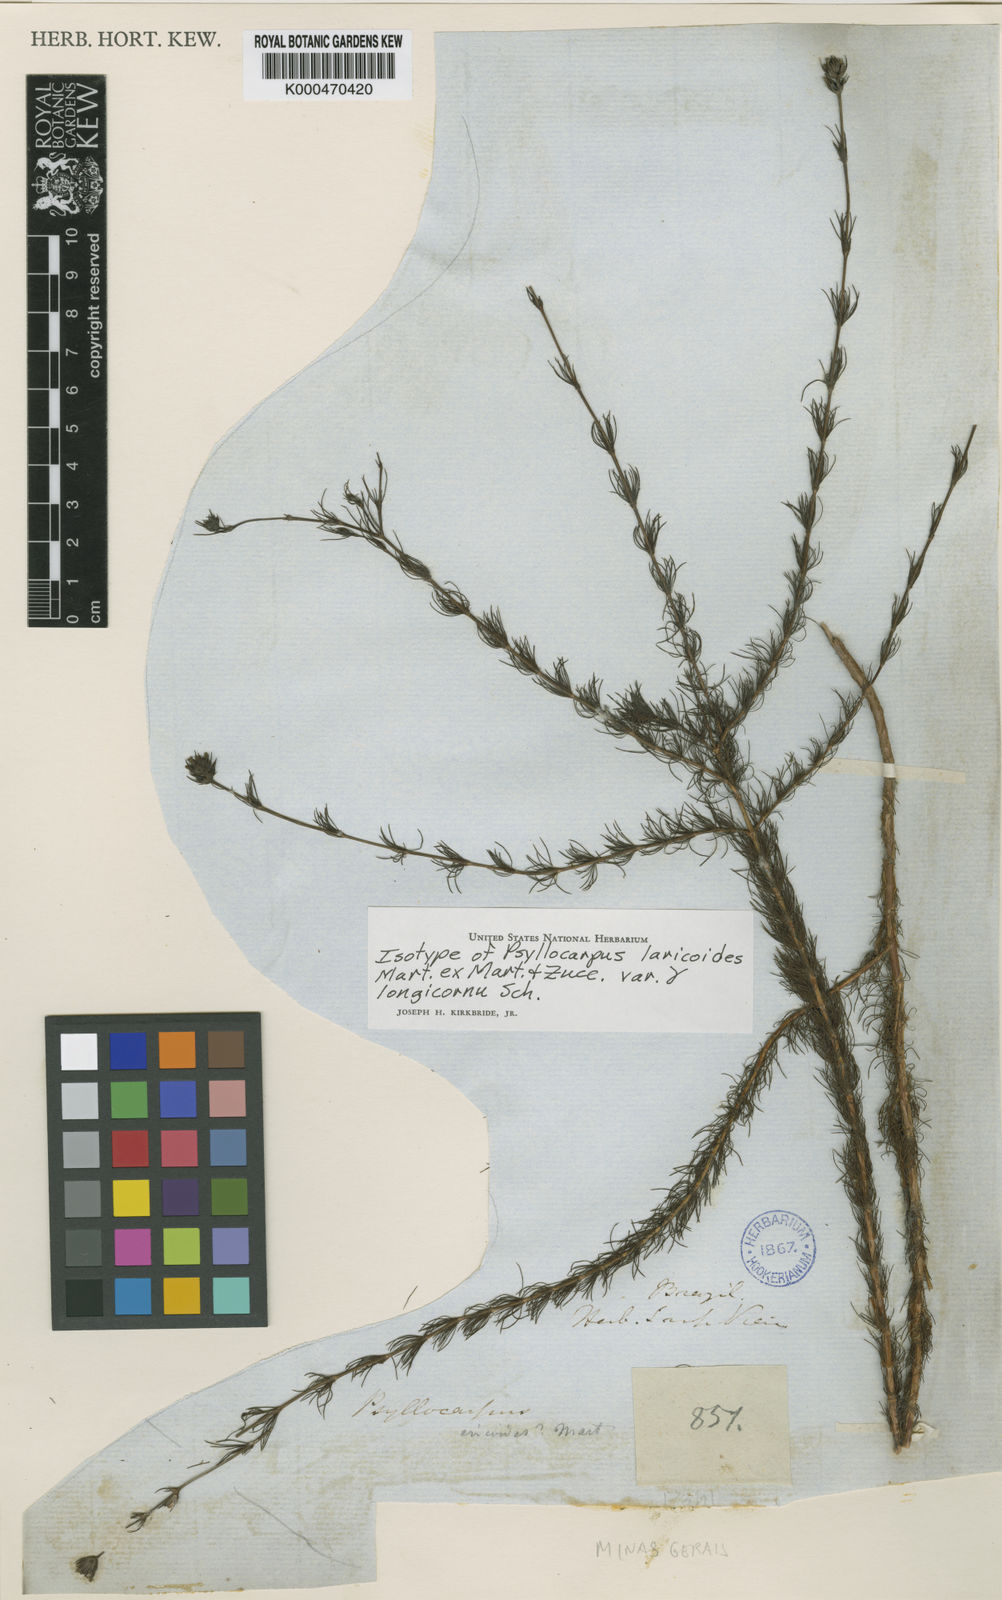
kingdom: Plantae
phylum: Tracheophyta
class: Magnoliopsida
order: Gentianales
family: Rubiaceae
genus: Psyllocarpus
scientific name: Psyllocarpus laricoides
